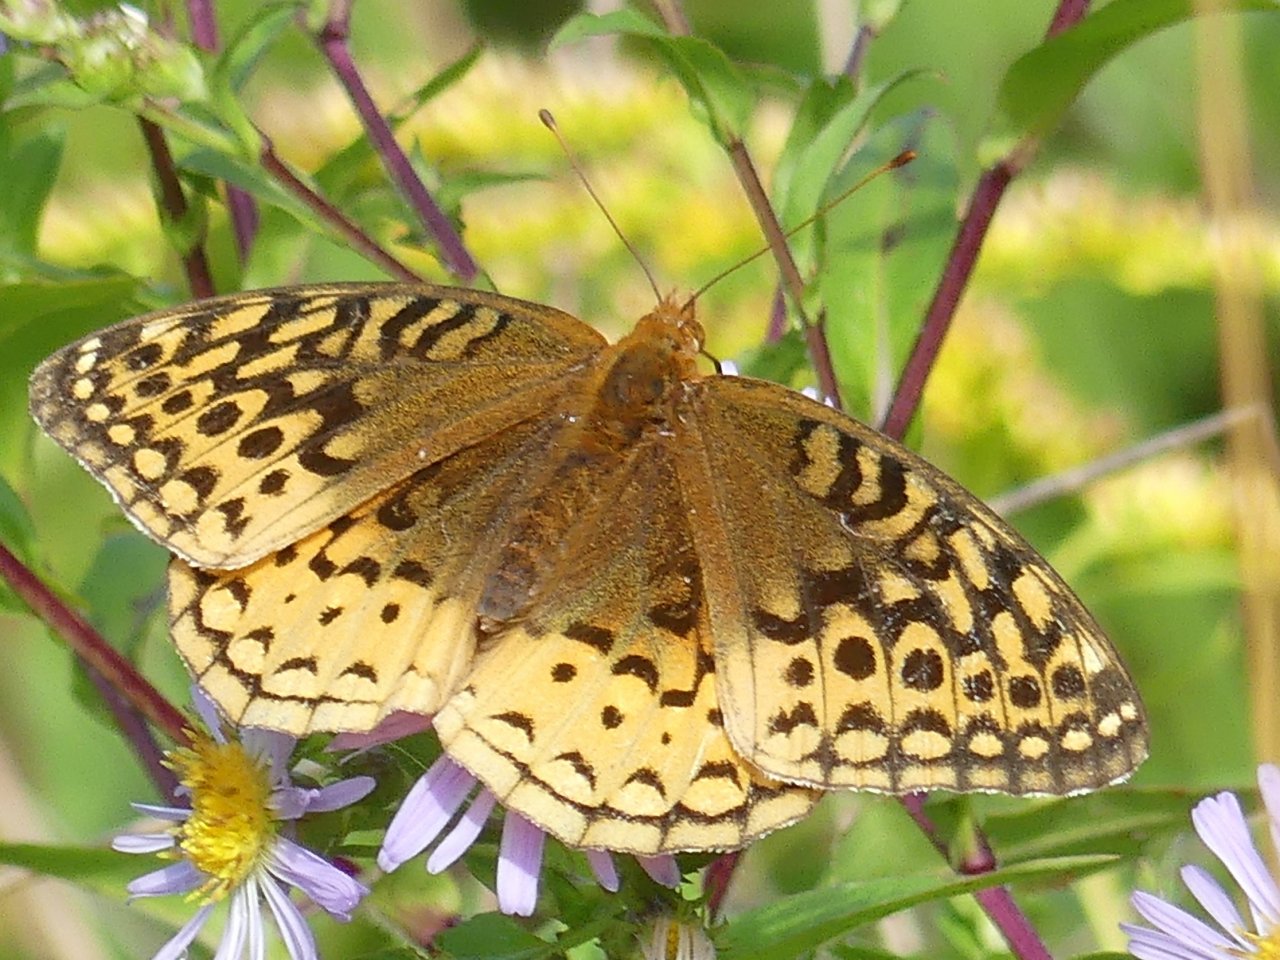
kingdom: Animalia
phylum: Arthropoda
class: Insecta
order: Lepidoptera
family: Nymphalidae
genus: Speyeria
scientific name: Speyeria cybele
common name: Great Spangled Fritillary
